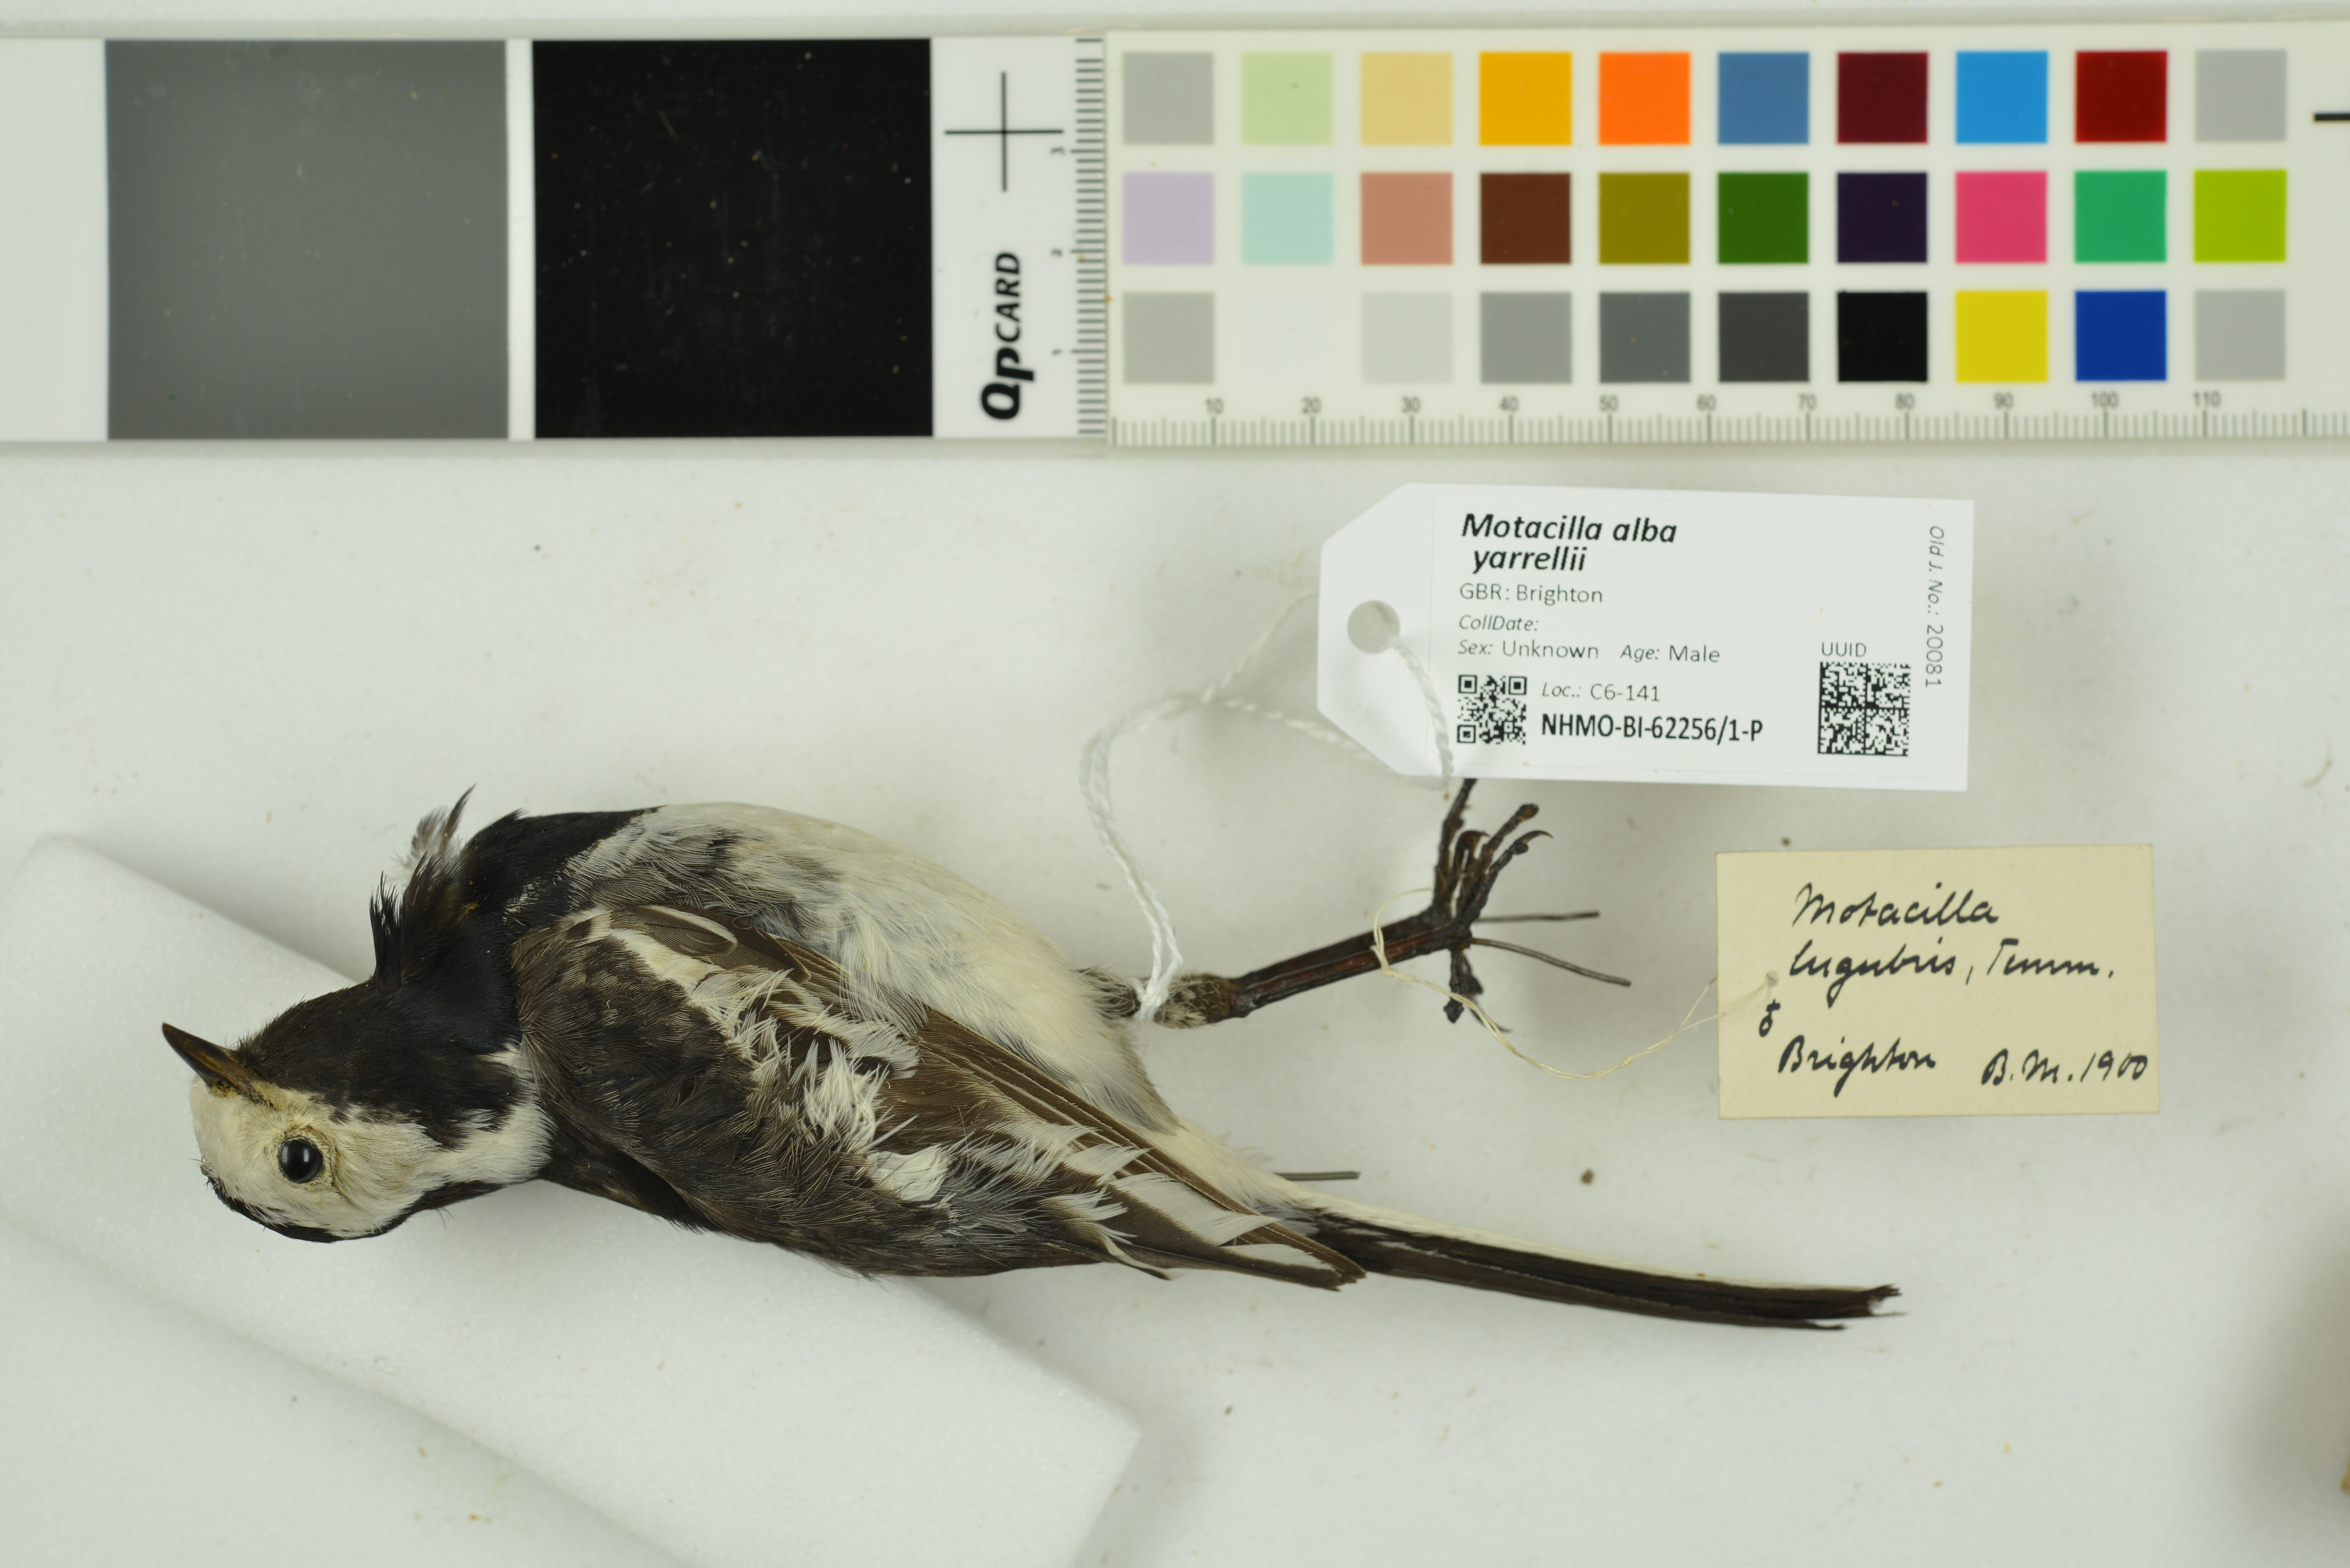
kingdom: Animalia
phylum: Chordata
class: Aves
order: Passeriformes
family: Motacillidae
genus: Motacilla
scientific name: Motacilla alba
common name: White wagtail
